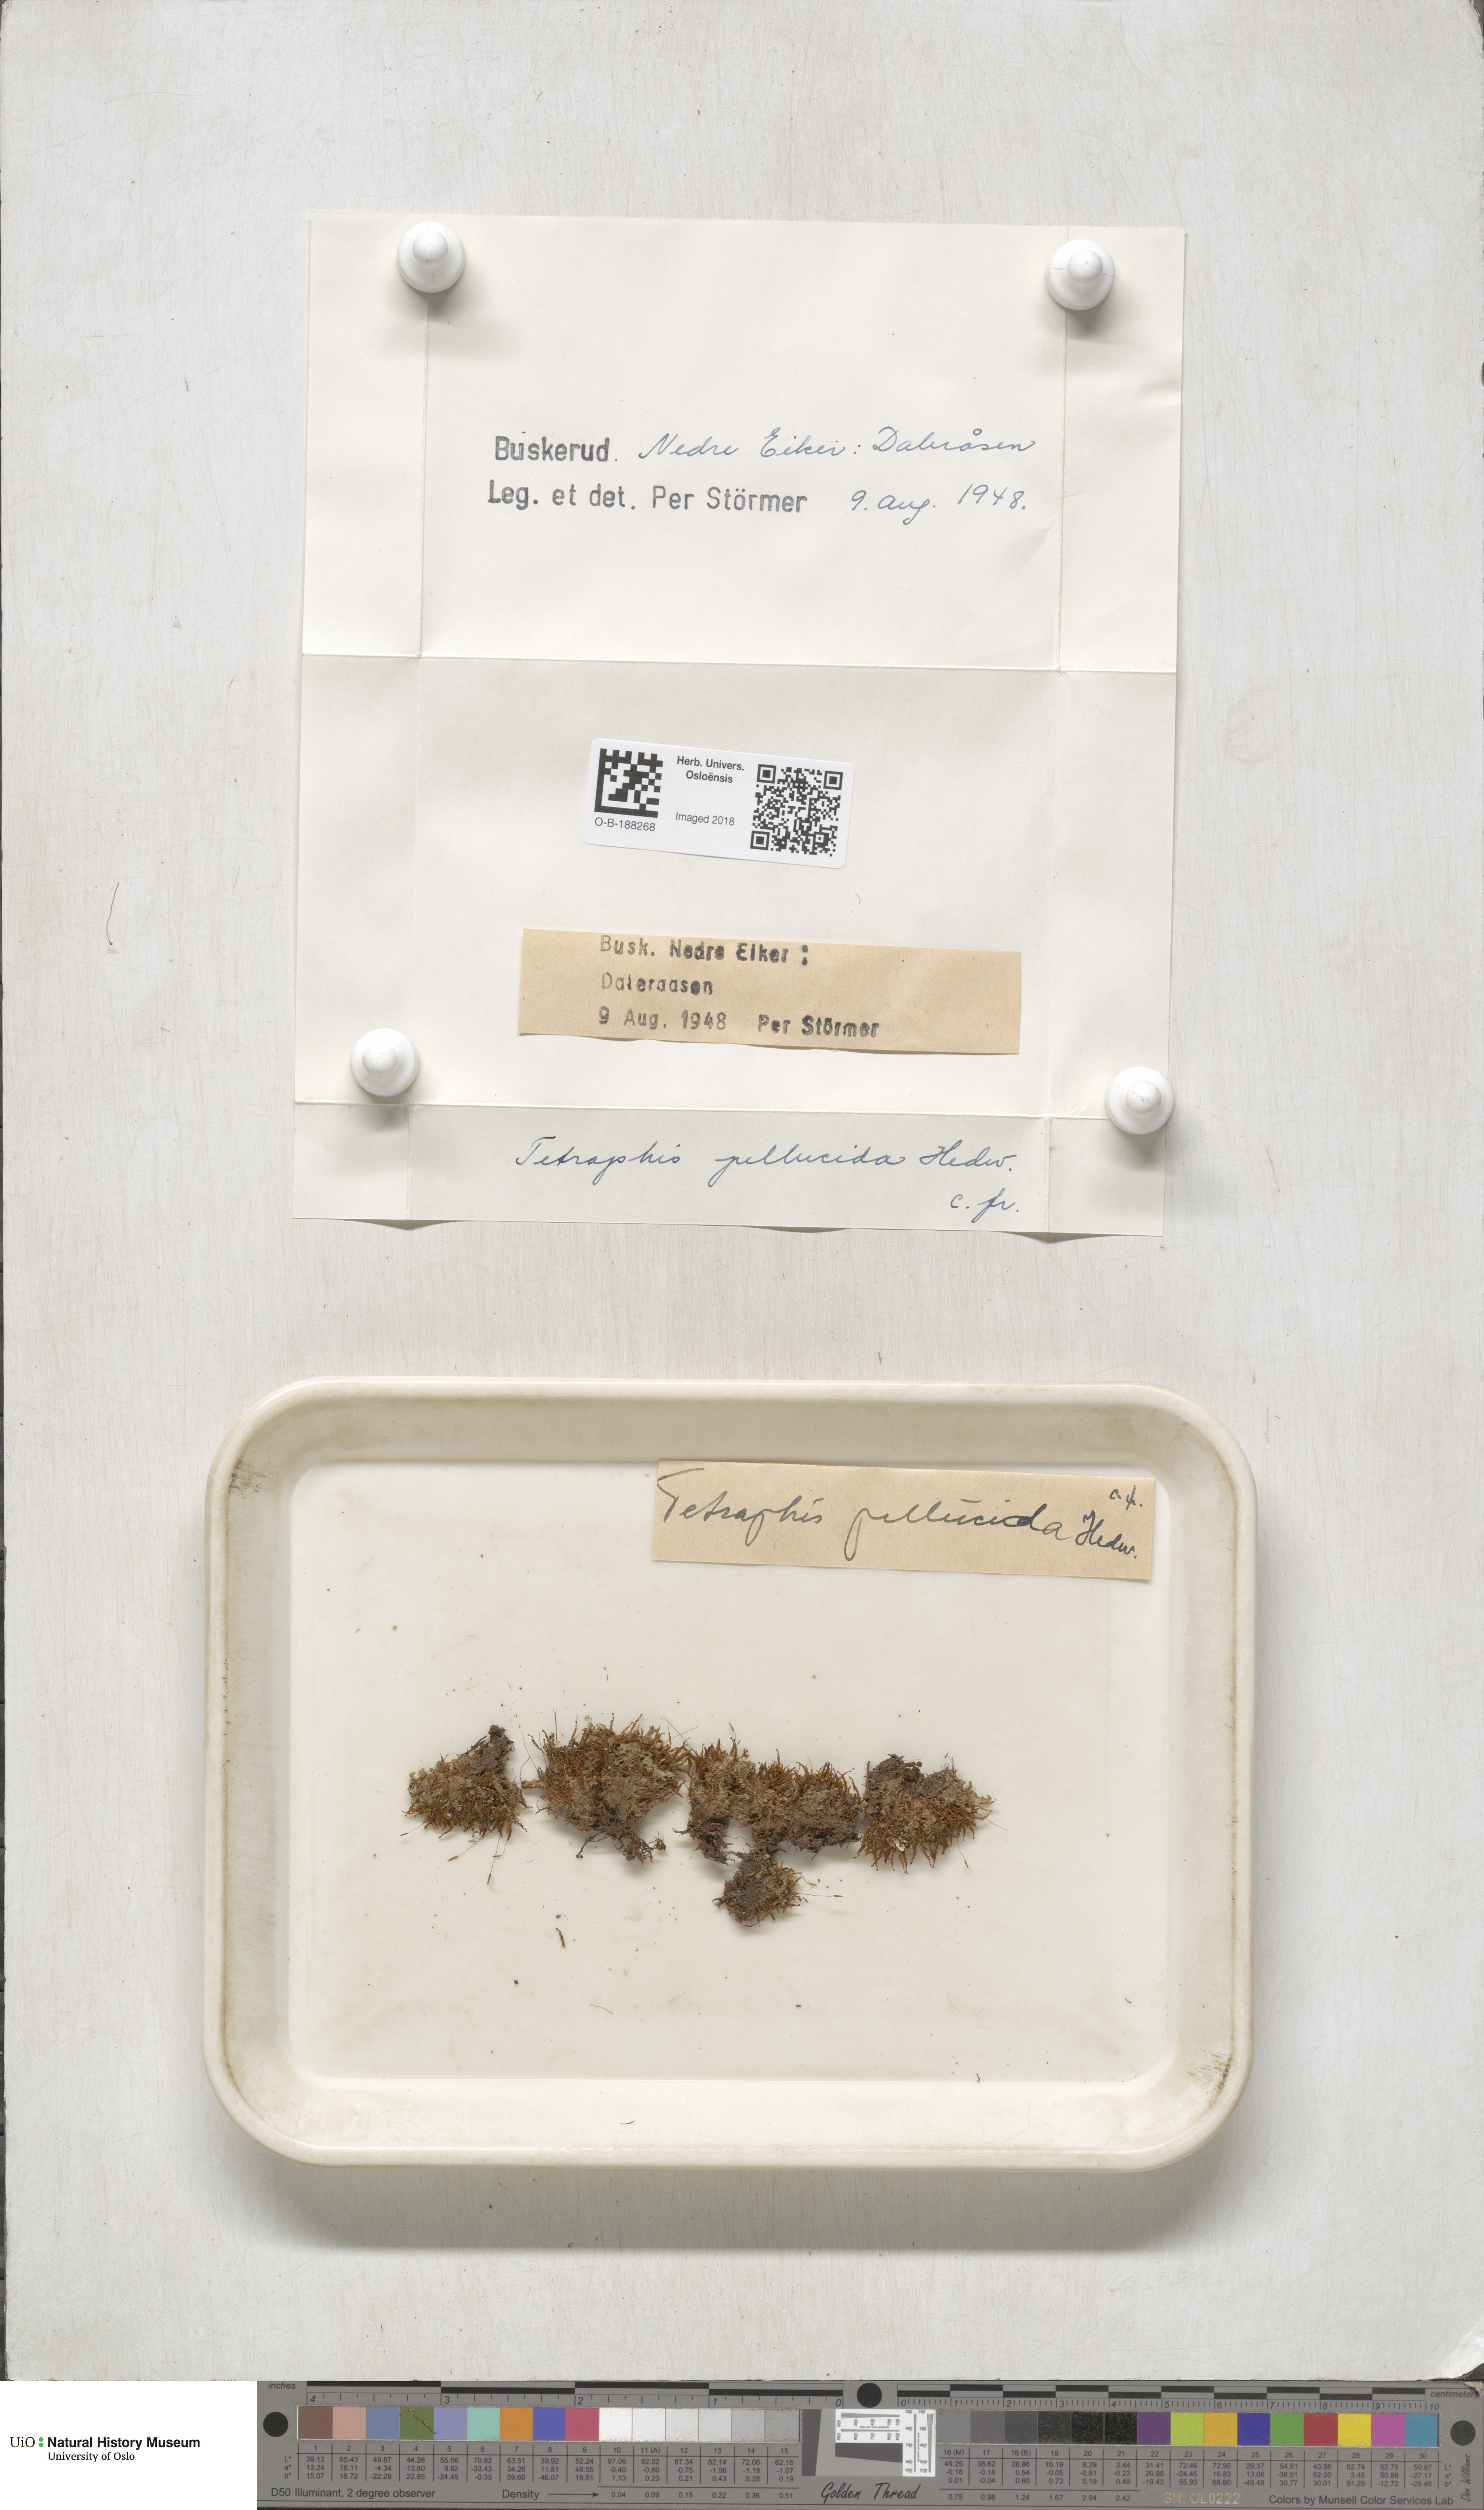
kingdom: Plantae
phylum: Bryophyta
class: Polytrichopsida
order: Tetraphidales
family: Tetraphidaceae
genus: Tetraphis
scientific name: Tetraphis pellucida
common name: Common four-toothed moss
